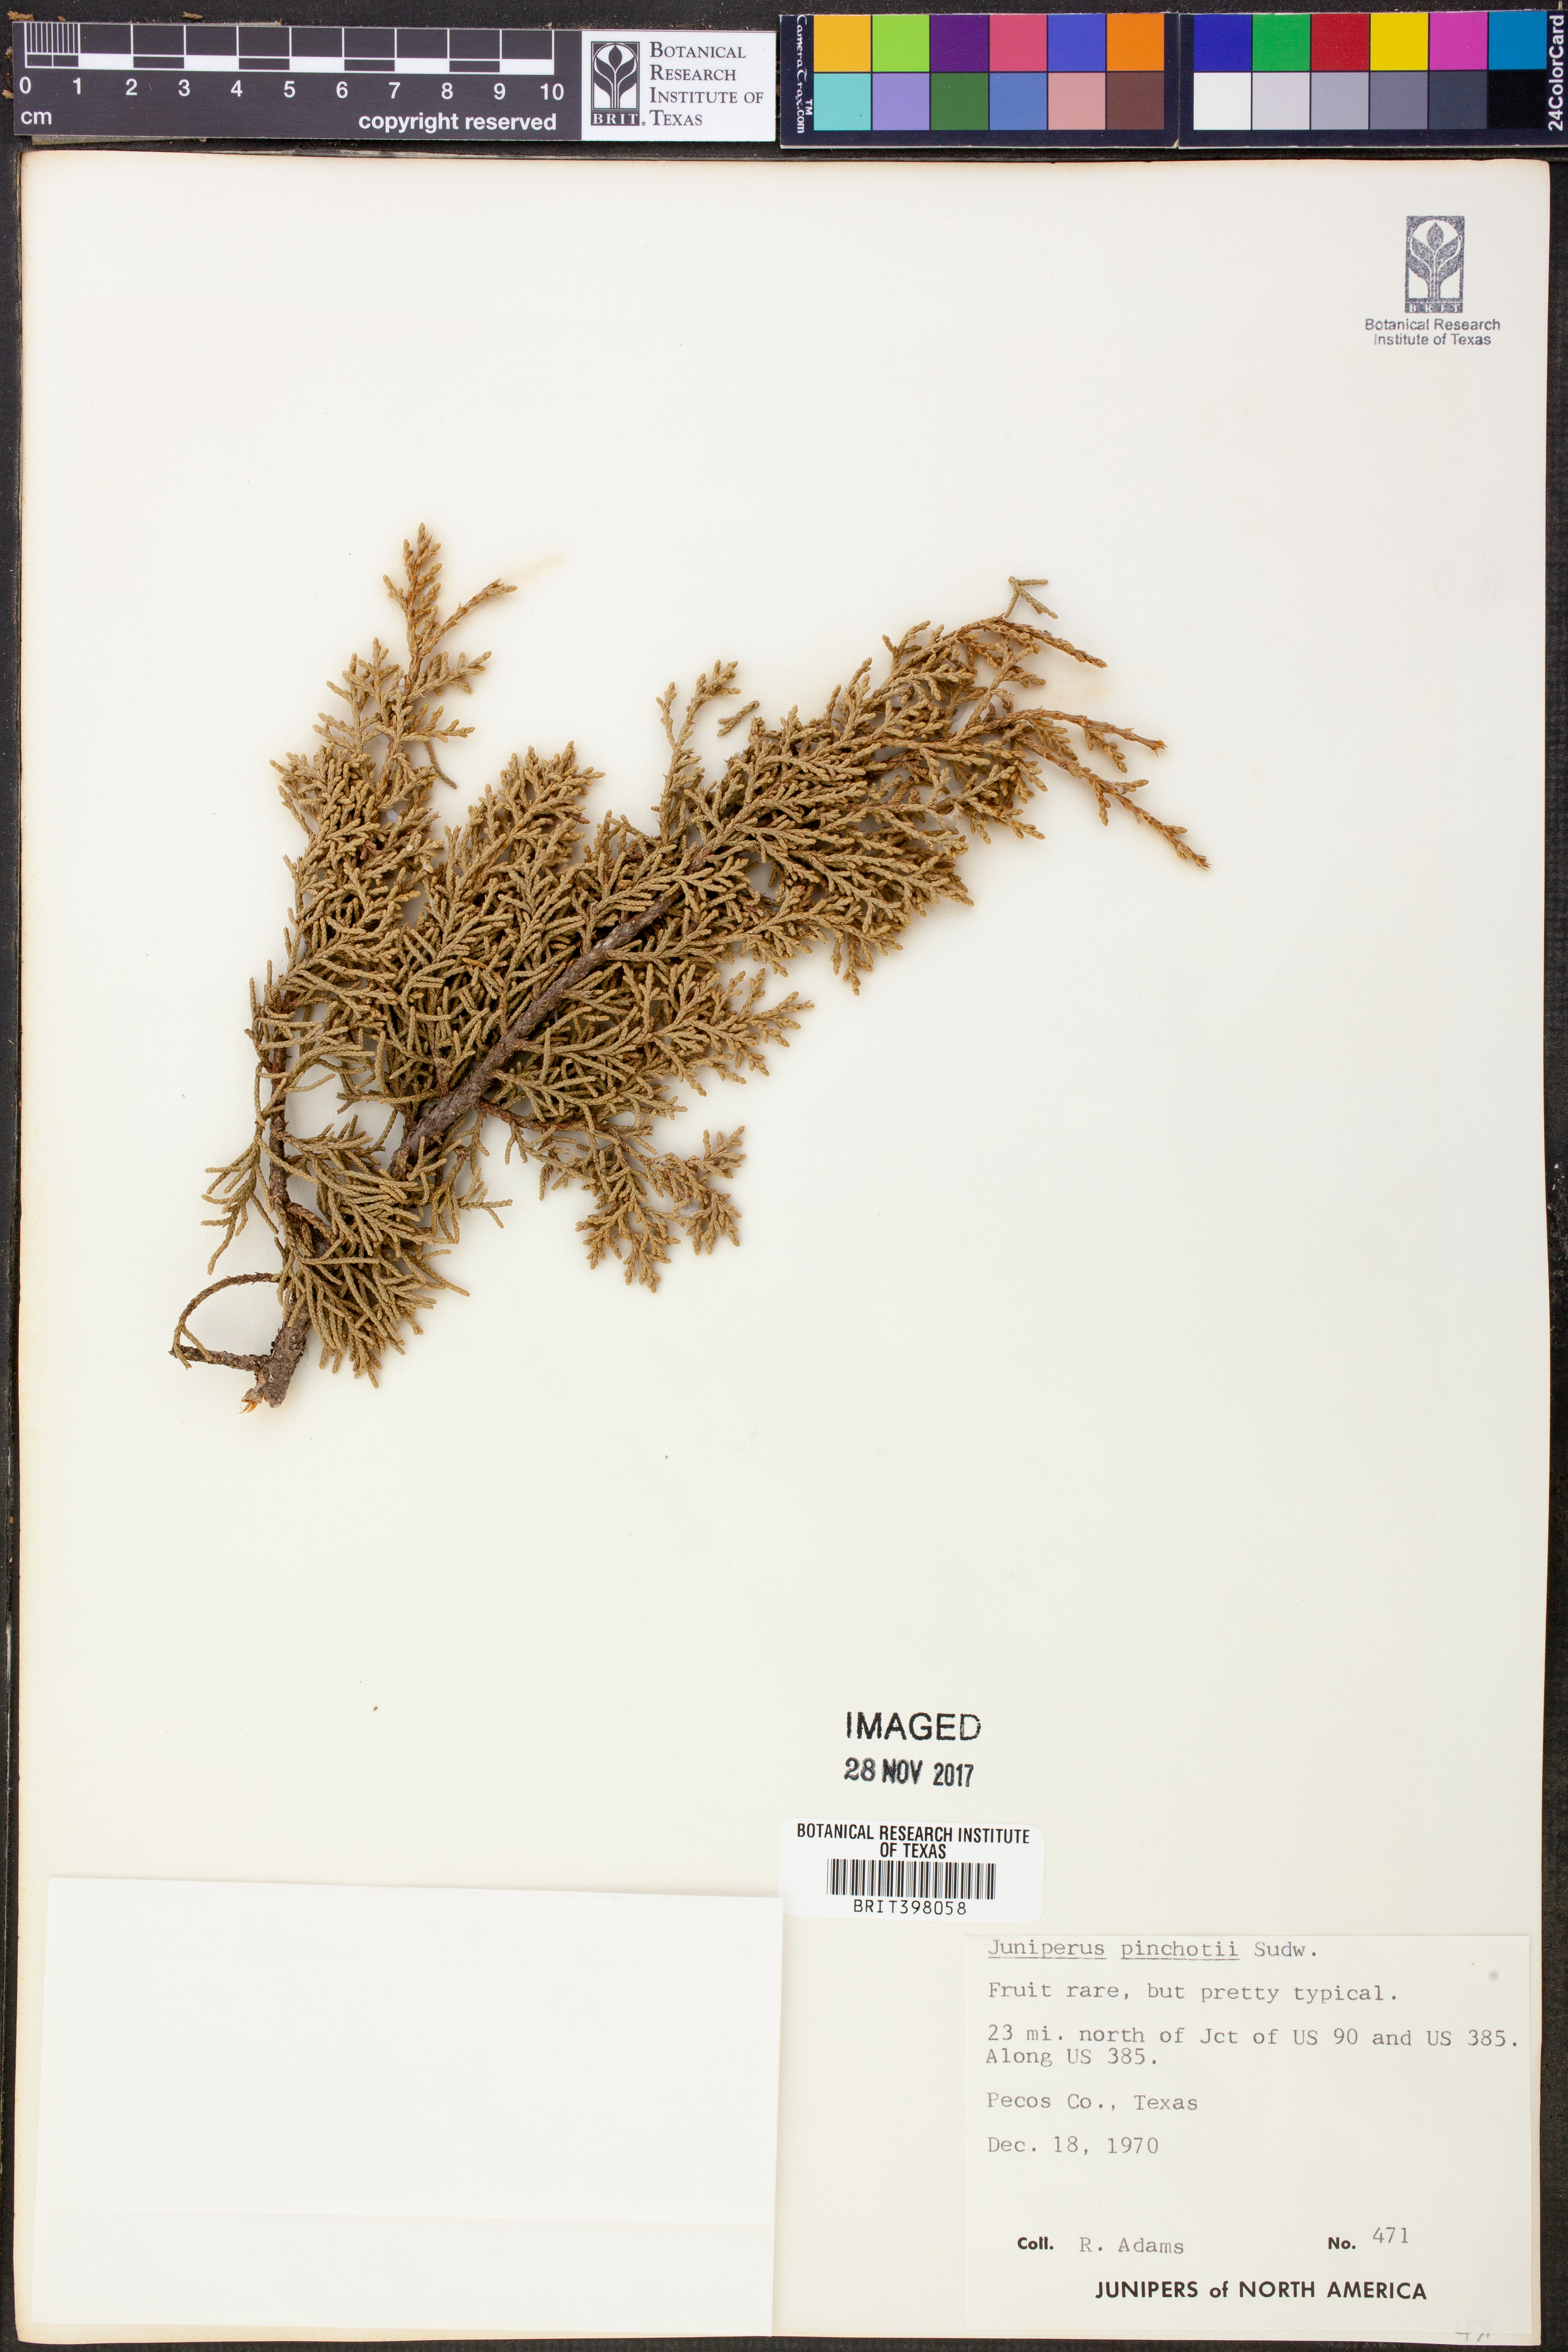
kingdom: Plantae
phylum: Tracheophyta
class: Pinopsida
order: Pinales
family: Cupressaceae
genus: Juniperus
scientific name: Juniperus pinchotii
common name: Pinchot juniper
